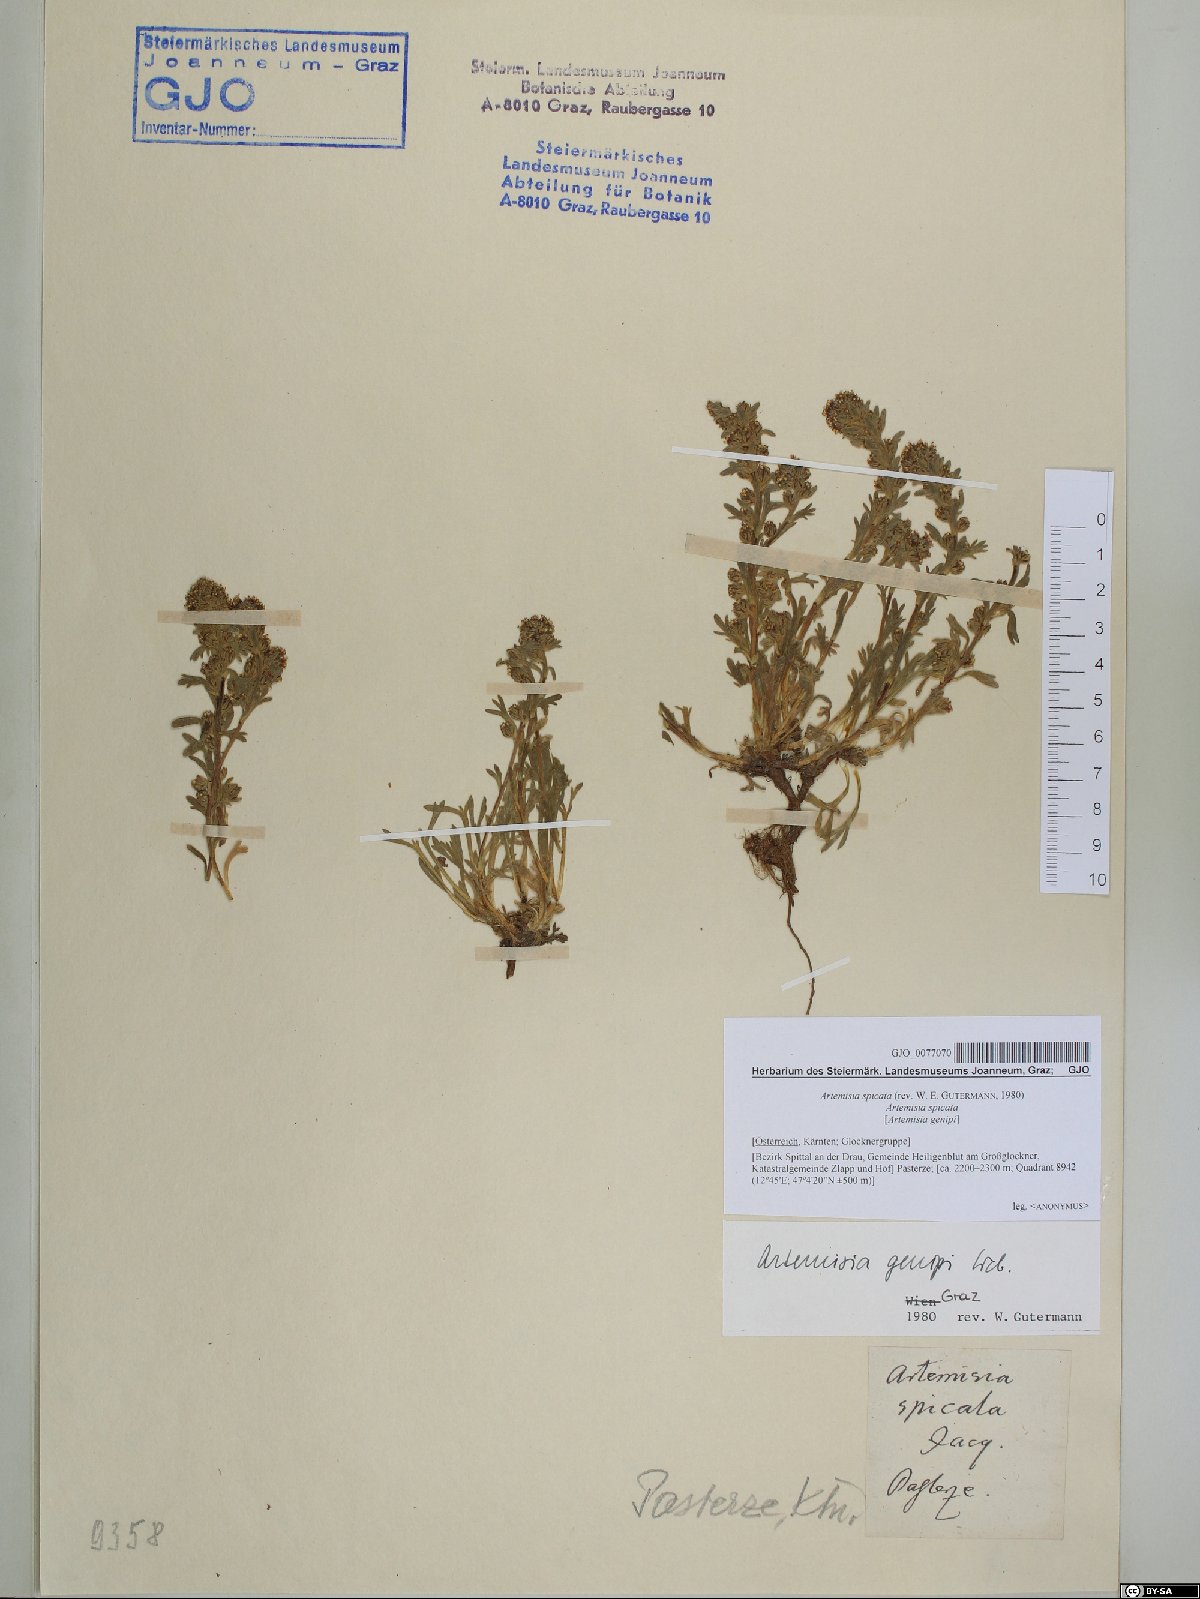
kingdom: Plantae
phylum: Tracheophyta
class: Magnoliopsida
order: Asterales
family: Asteraceae
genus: Artemisia
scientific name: Artemisia genipi
